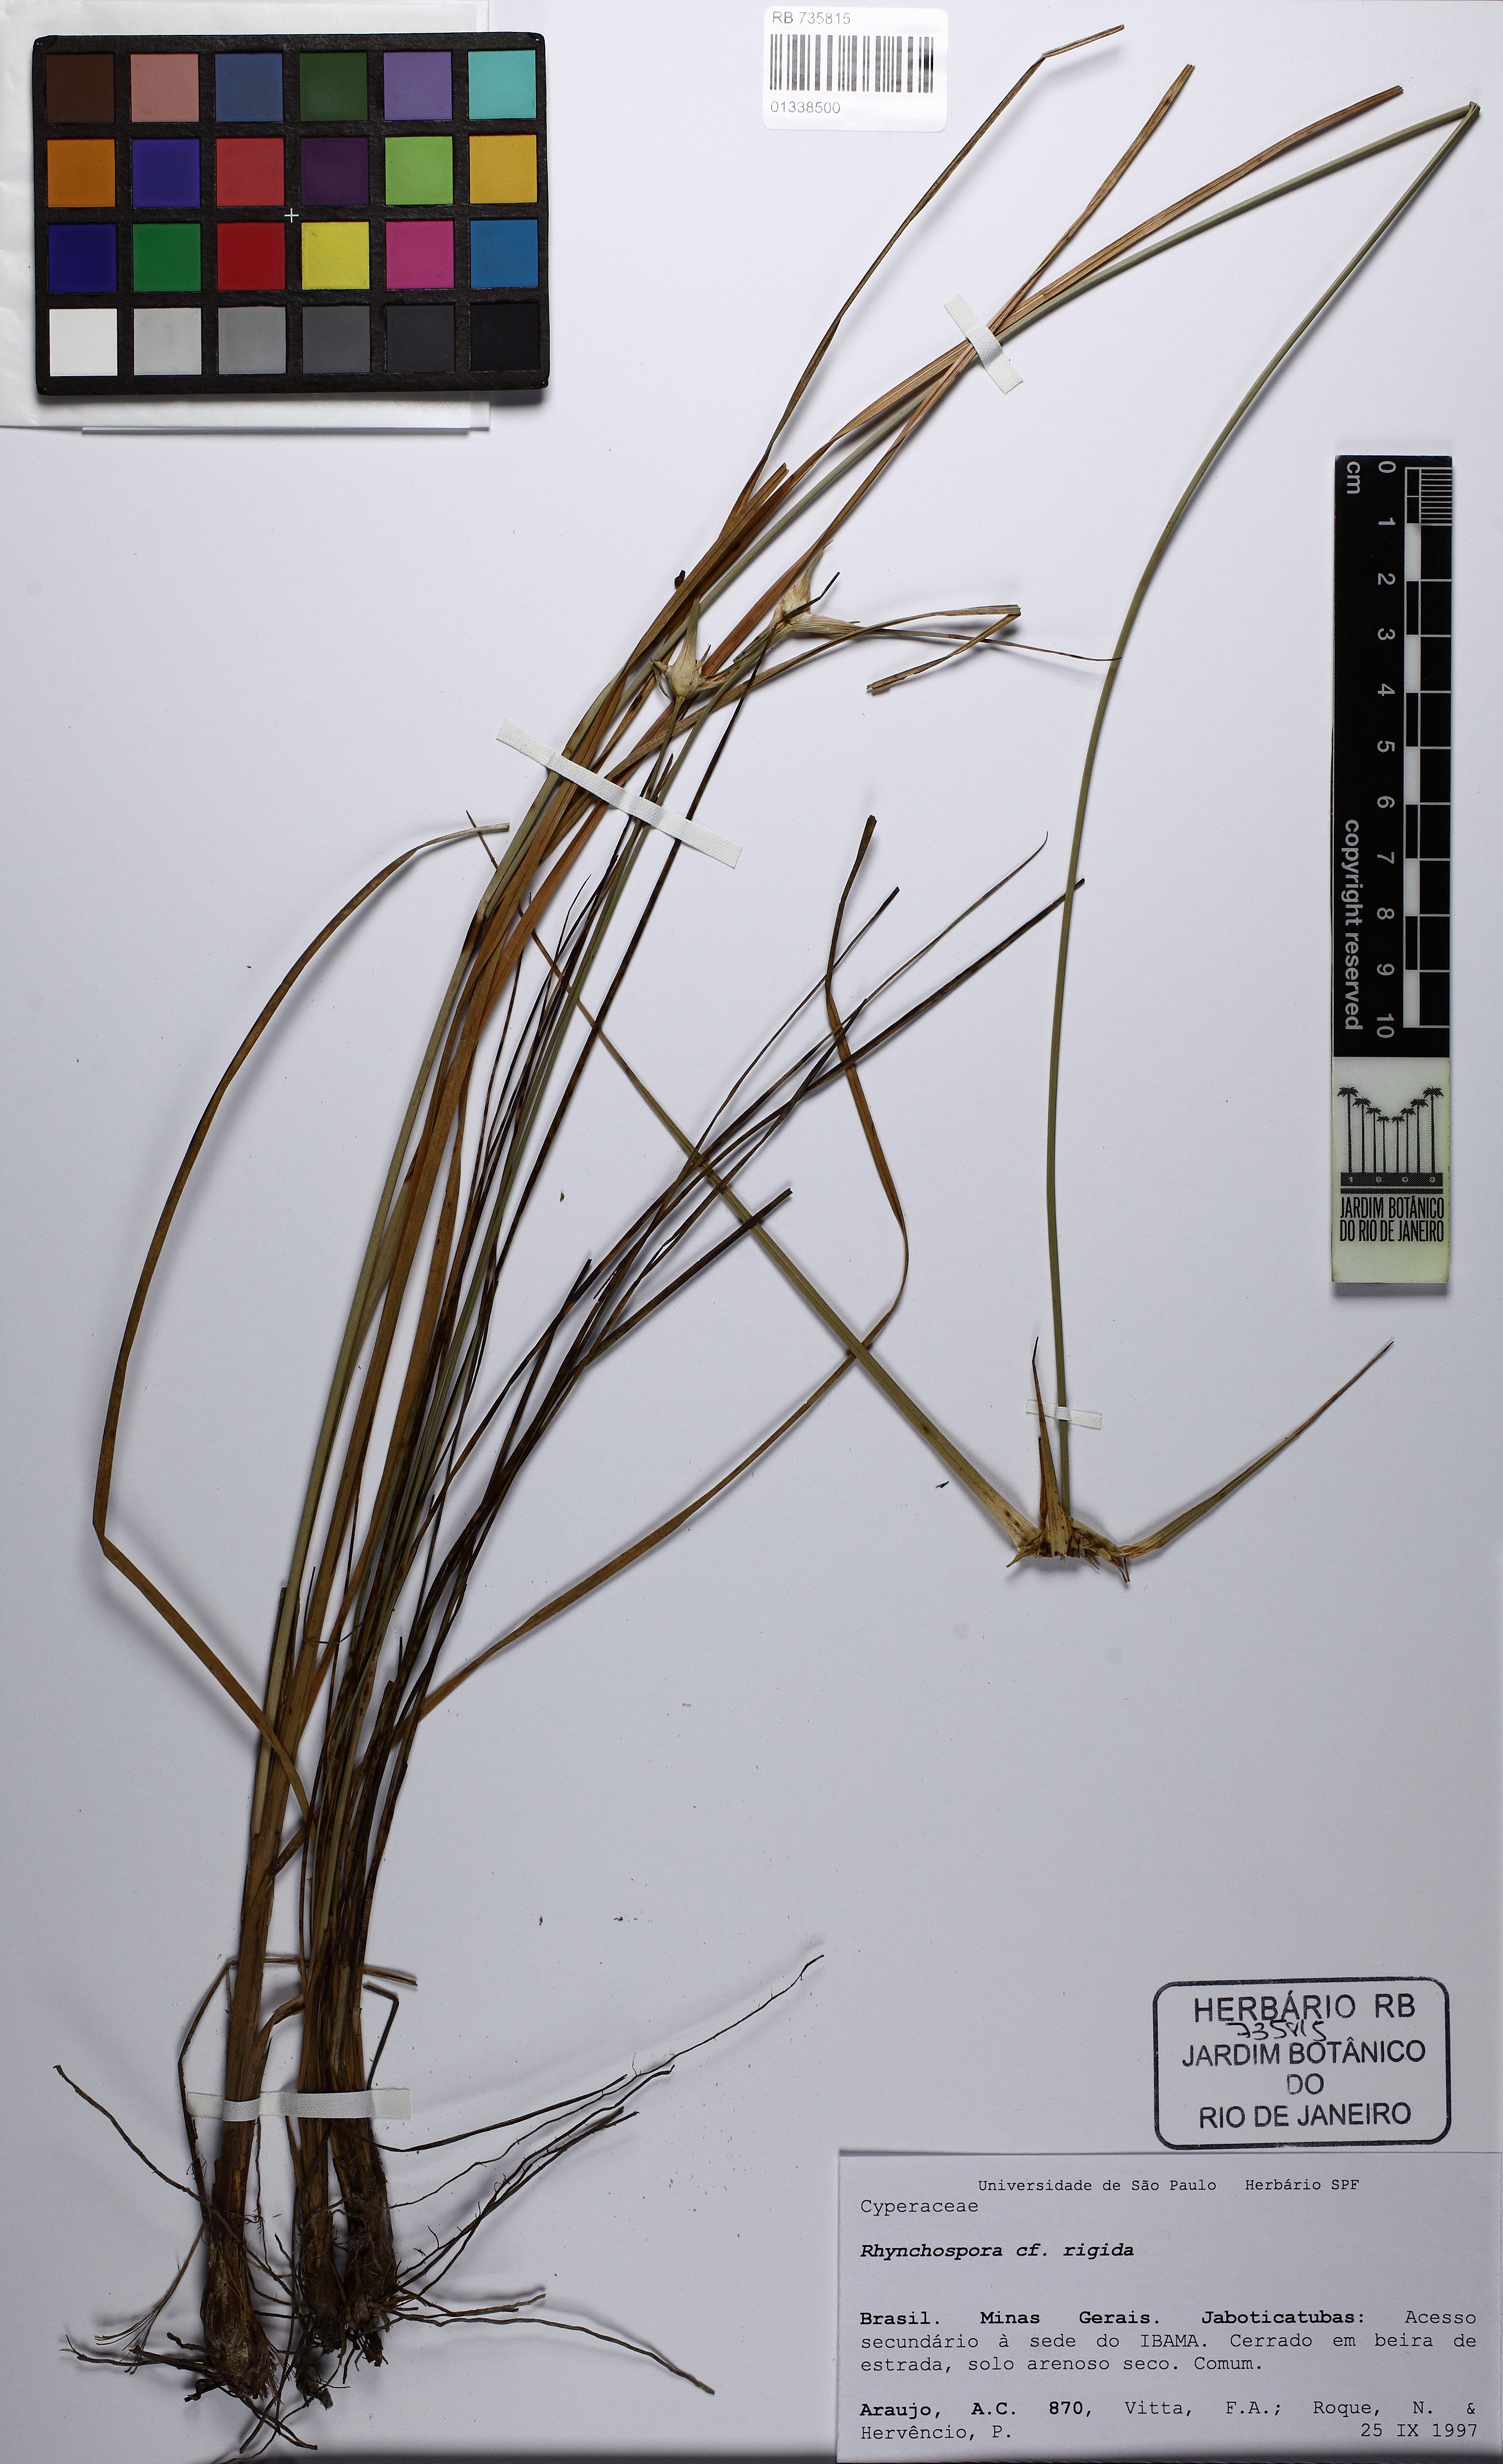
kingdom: Plantae
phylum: Tracheophyta
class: Liliopsida
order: Poales
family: Cyperaceae
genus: Rhynchospora
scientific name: Rhynchospora albobracteata
